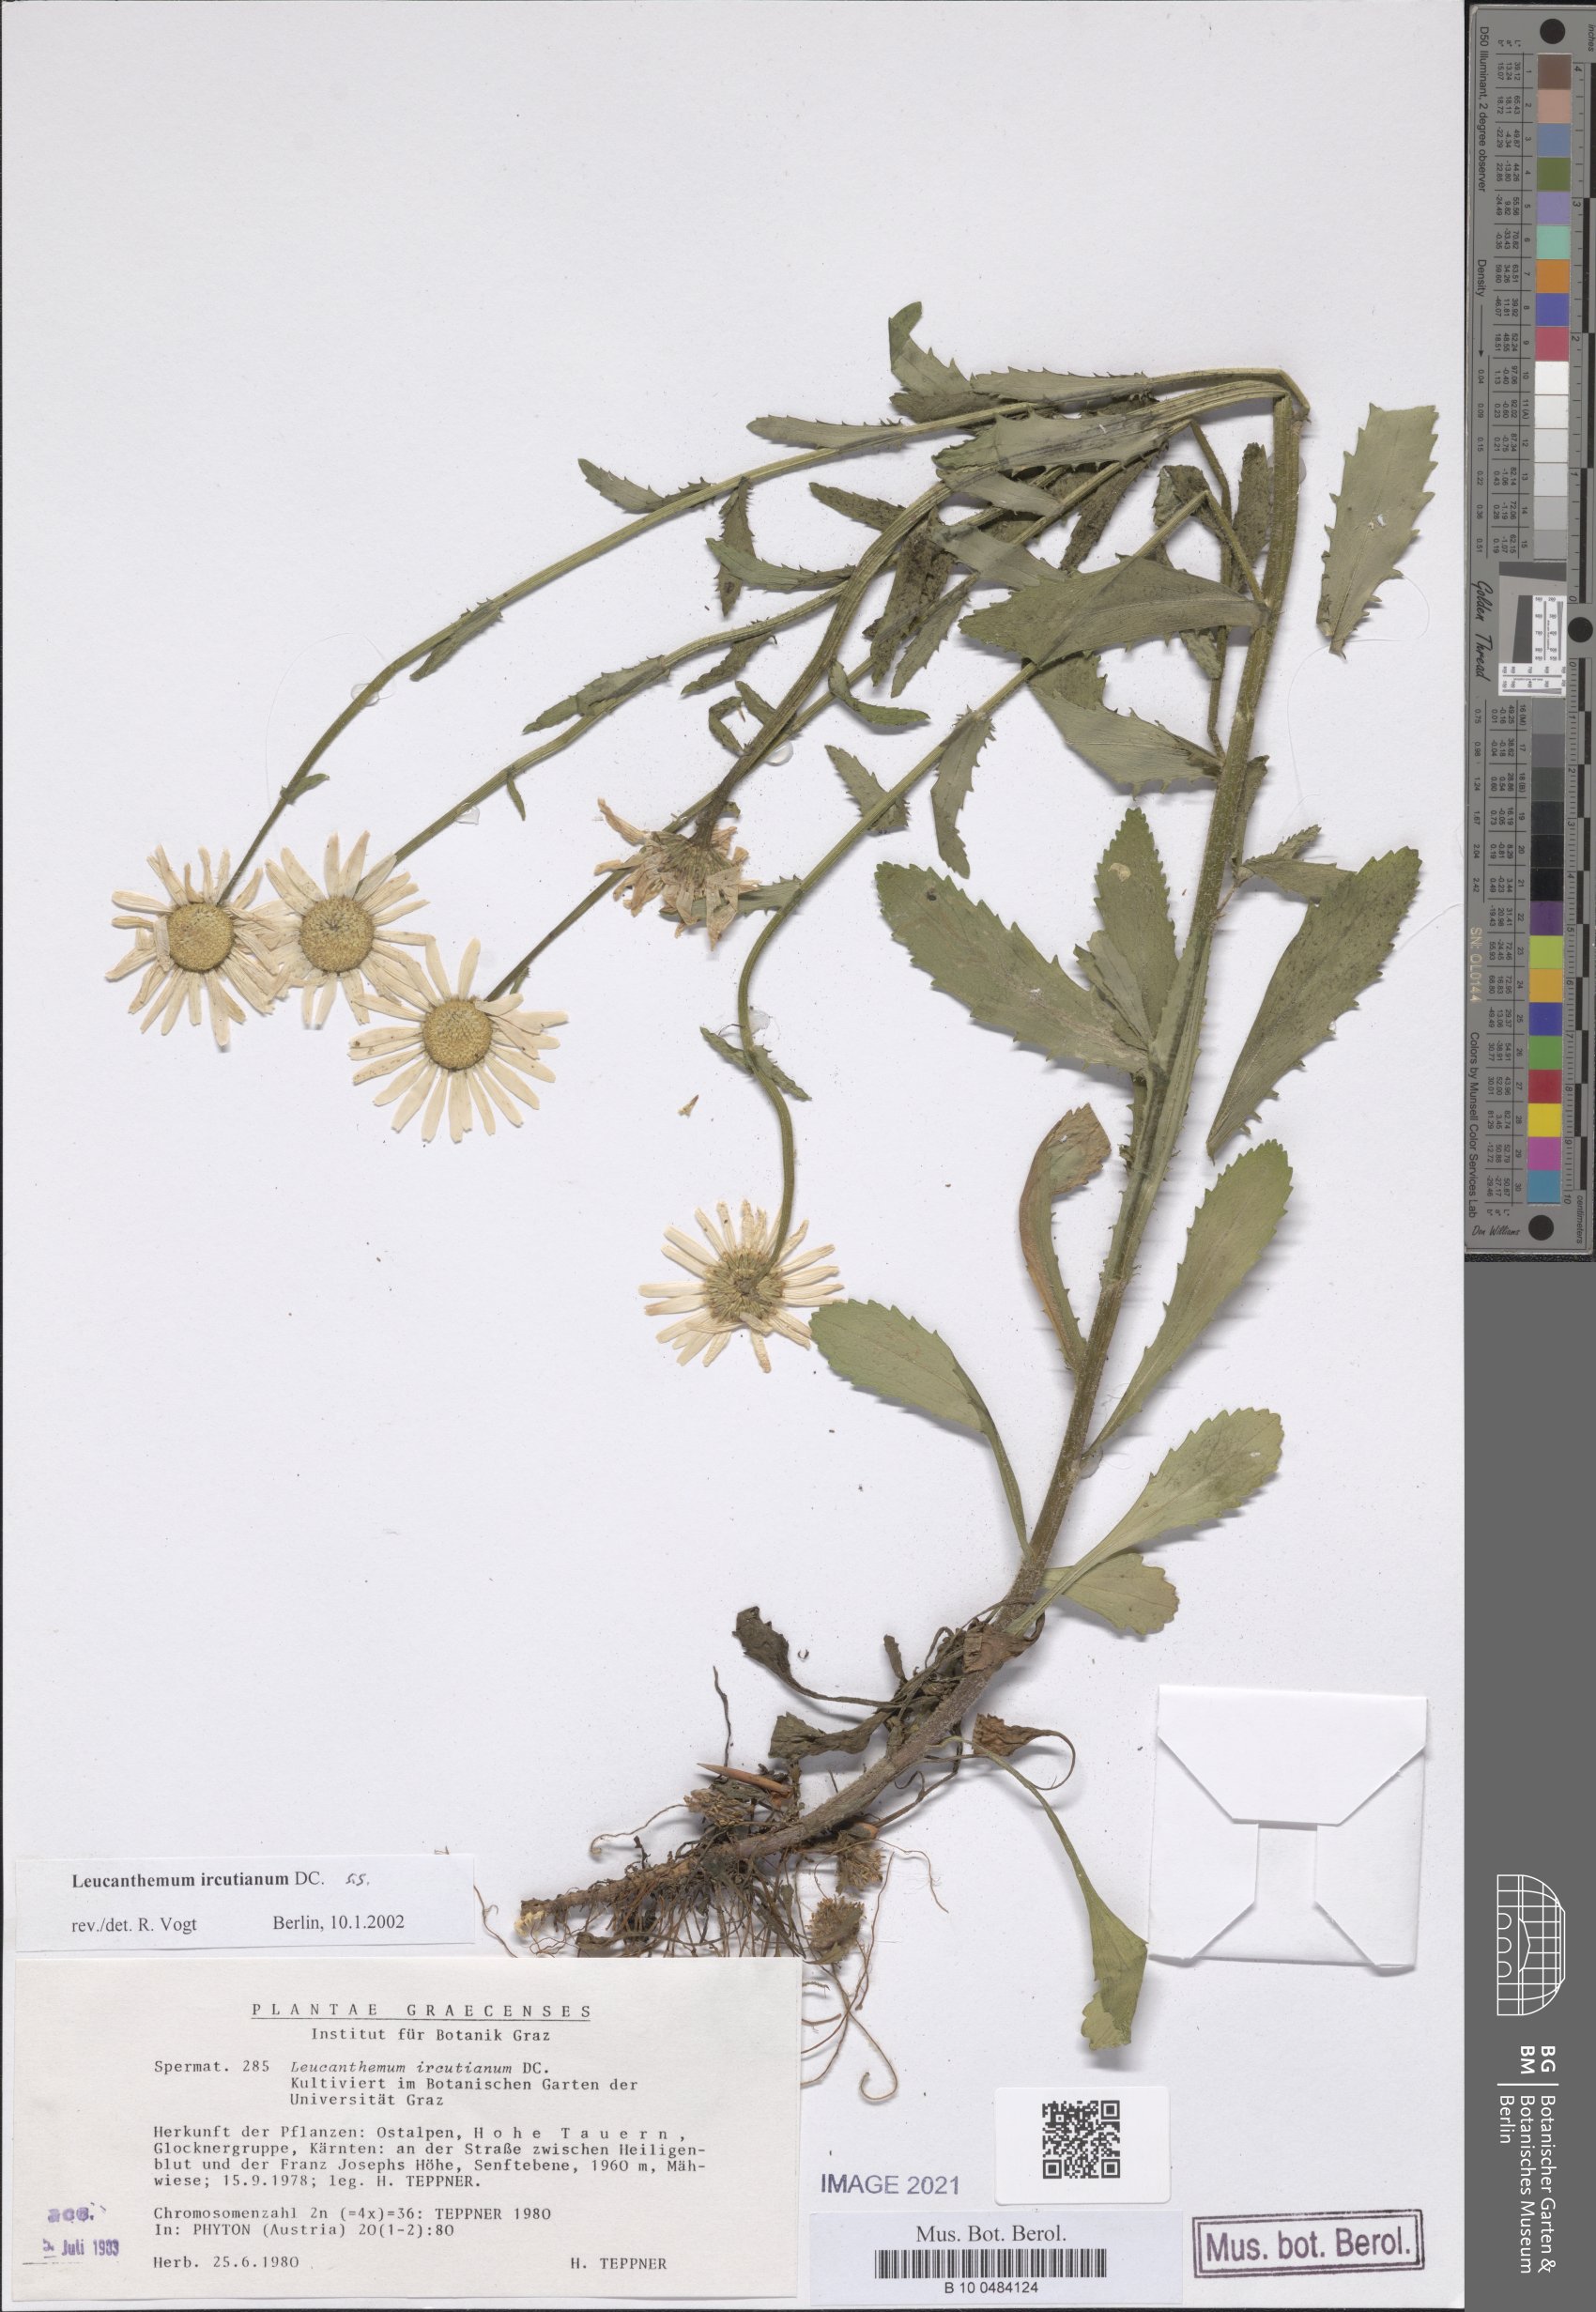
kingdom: Plantae
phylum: Tracheophyta
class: Magnoliopsida
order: Asterales
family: Asteraceae
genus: Leucanthemum
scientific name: Leucanthemum ircutianum
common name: Daisy
